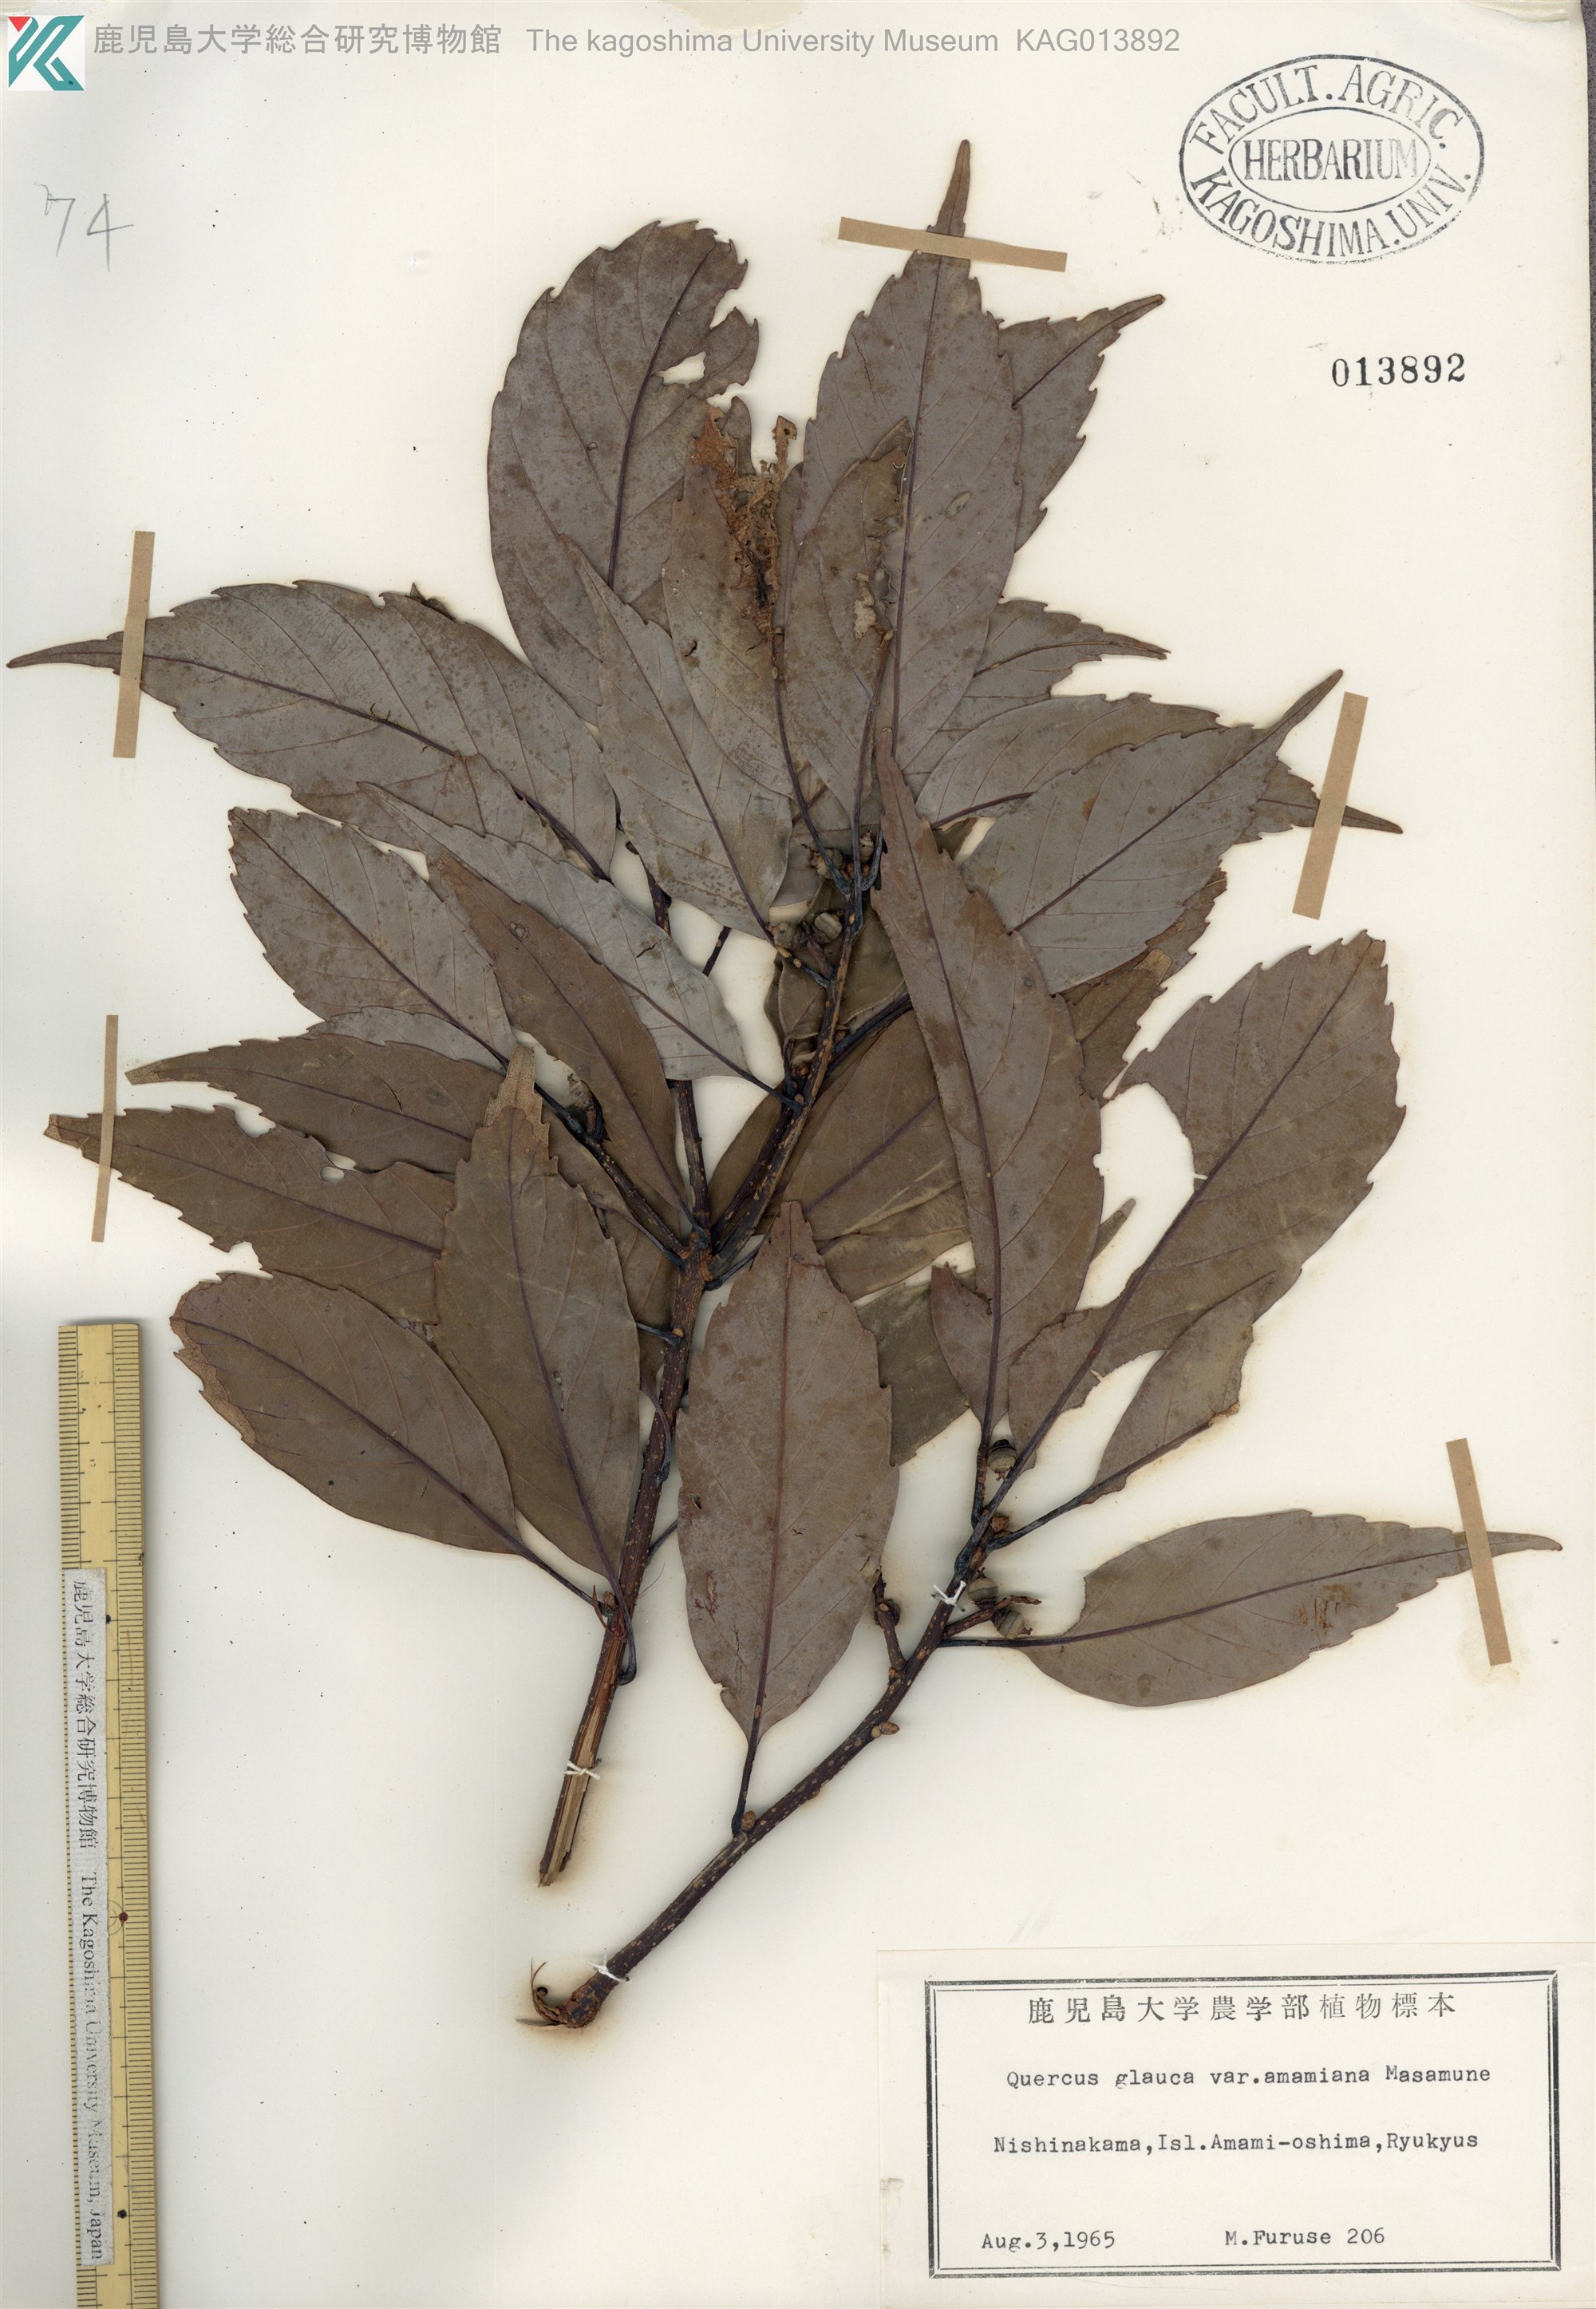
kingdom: Plantae
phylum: Tracheophyta
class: Magnoliopsida
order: Fagales
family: Fagaceae
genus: Quercus
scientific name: Quercus glauca
